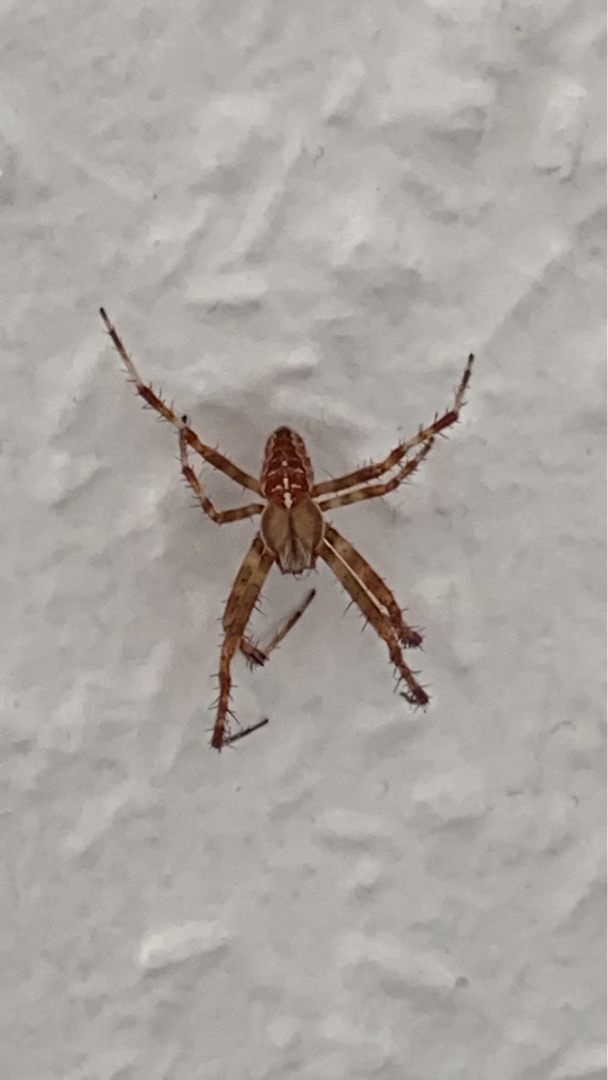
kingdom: Animalia
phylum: Arthropoda
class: Arachnida
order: Araneae
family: Araneidae
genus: Araneus
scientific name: Araneus diadematus
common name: Korsedderkop
